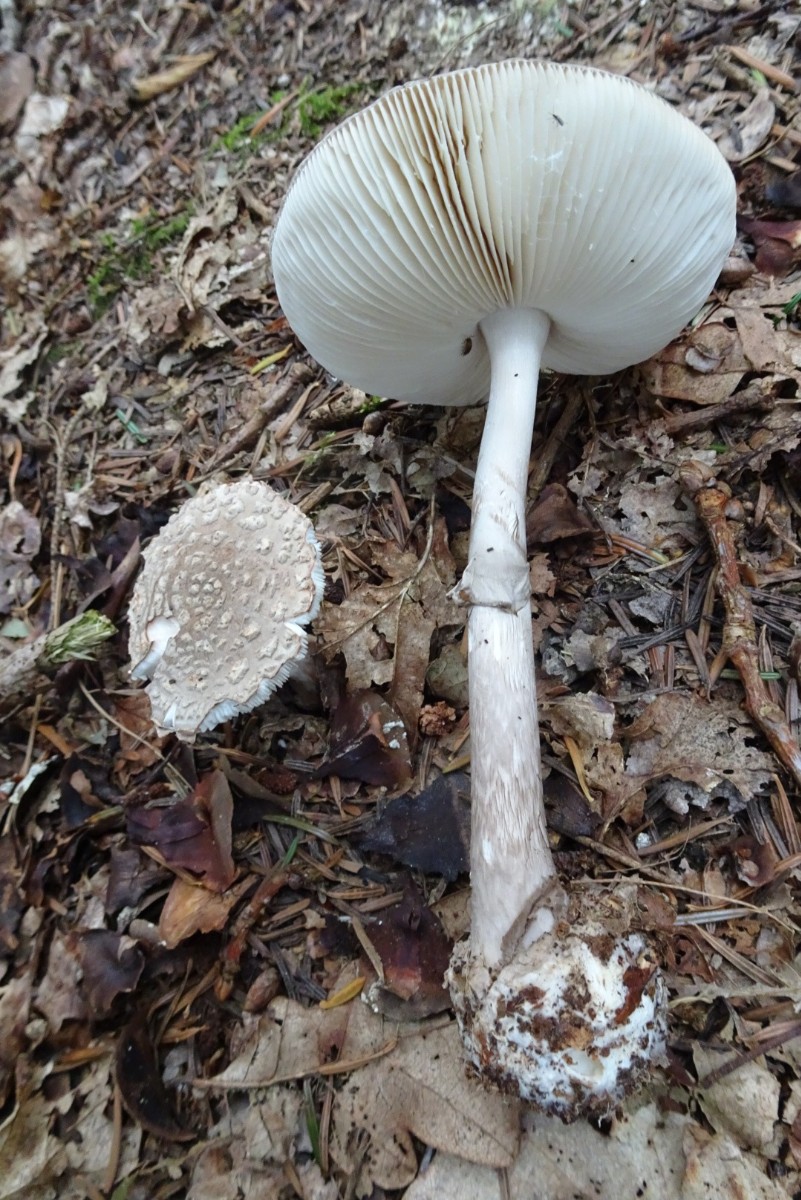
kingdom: Fungi
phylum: Basidiomycota
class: Agaricomycetes
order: Agaricales
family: Amanitaceae
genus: Amanita
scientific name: Amanita
